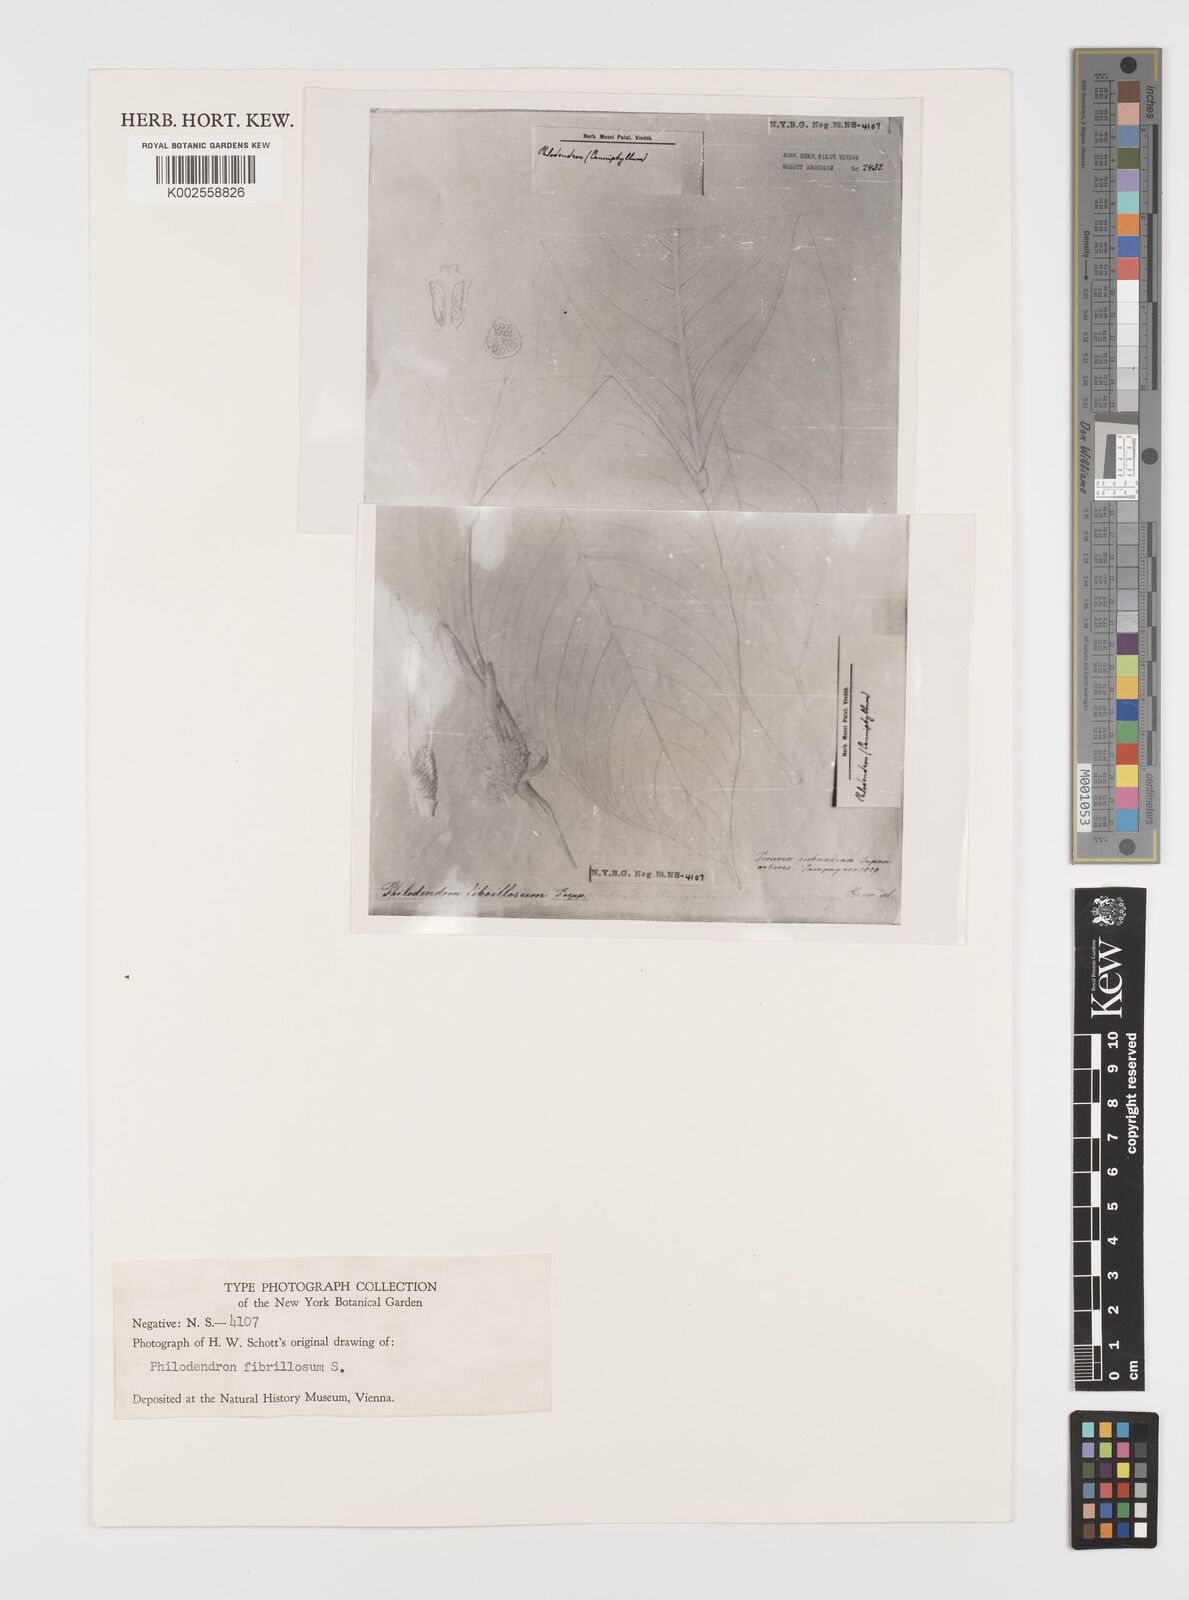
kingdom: Plantae
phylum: Tracheophyta
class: Liliopsida
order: Alismatales
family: Araceae
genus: Philodendron
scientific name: Philodendron fibrillosum
